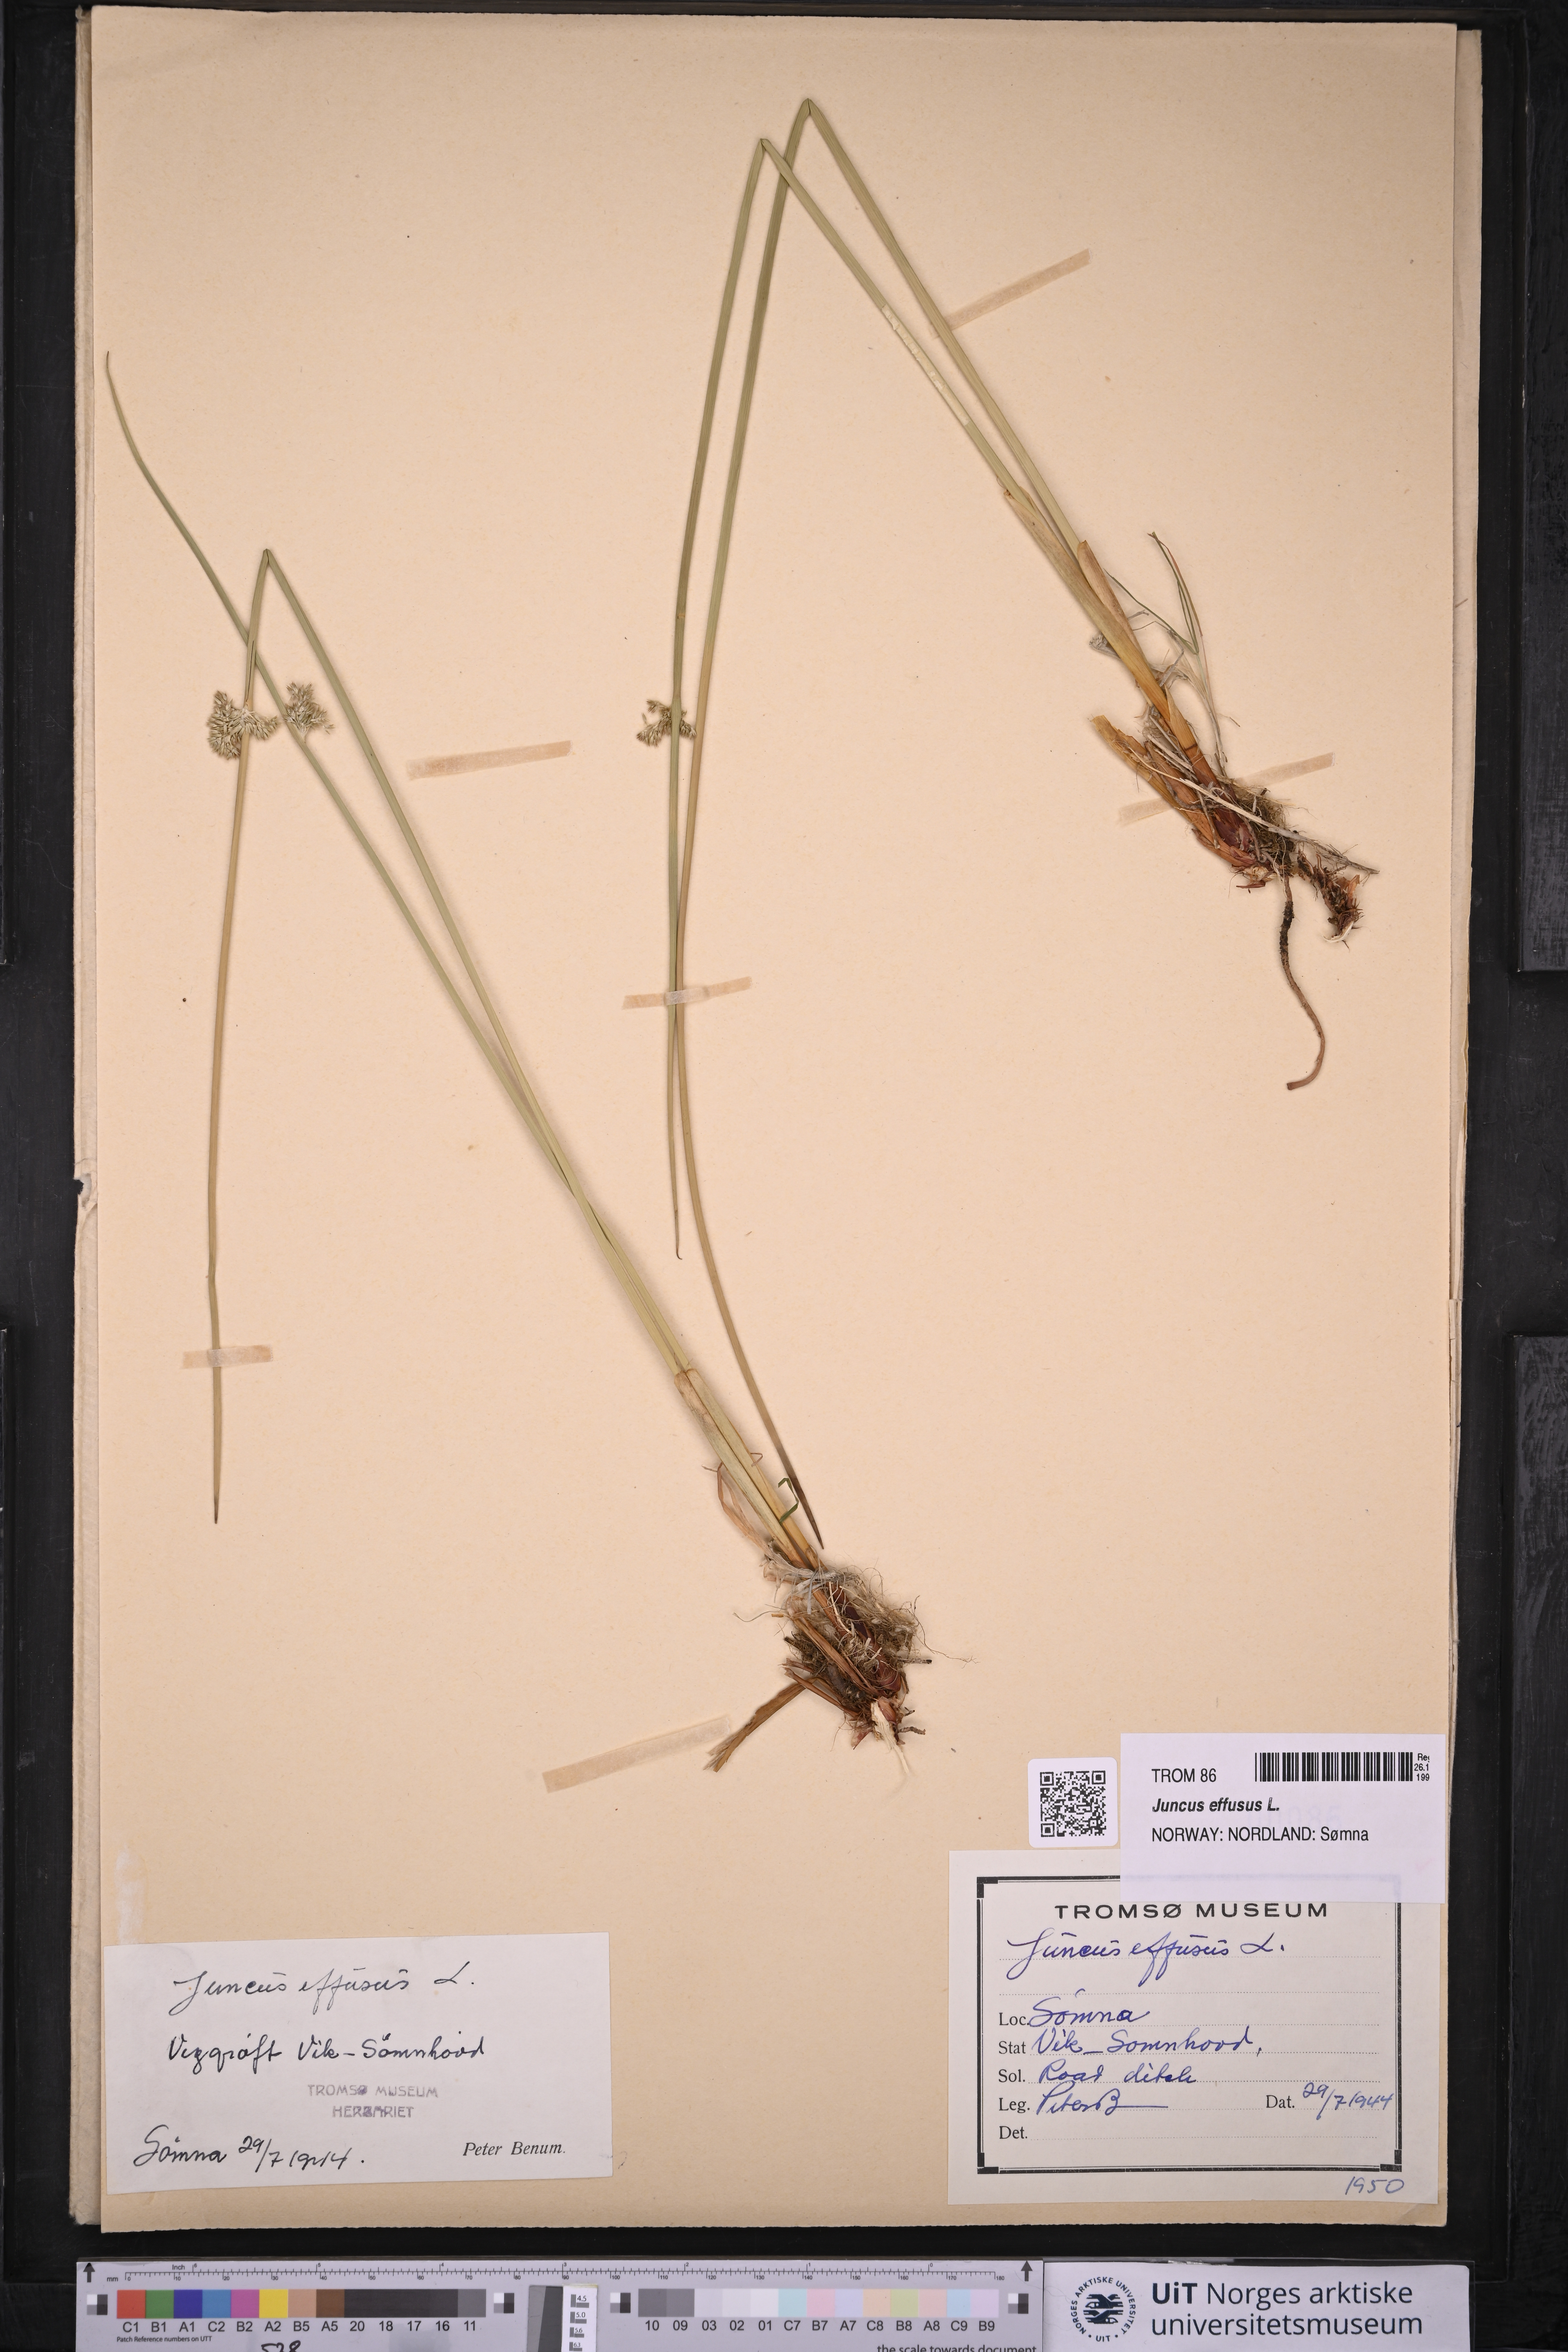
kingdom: Plantae
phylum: Tracheophyta
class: Liliopsida
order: Poales
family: Juncaceae
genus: Juncus
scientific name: Juncus effusus
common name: Soft rush
